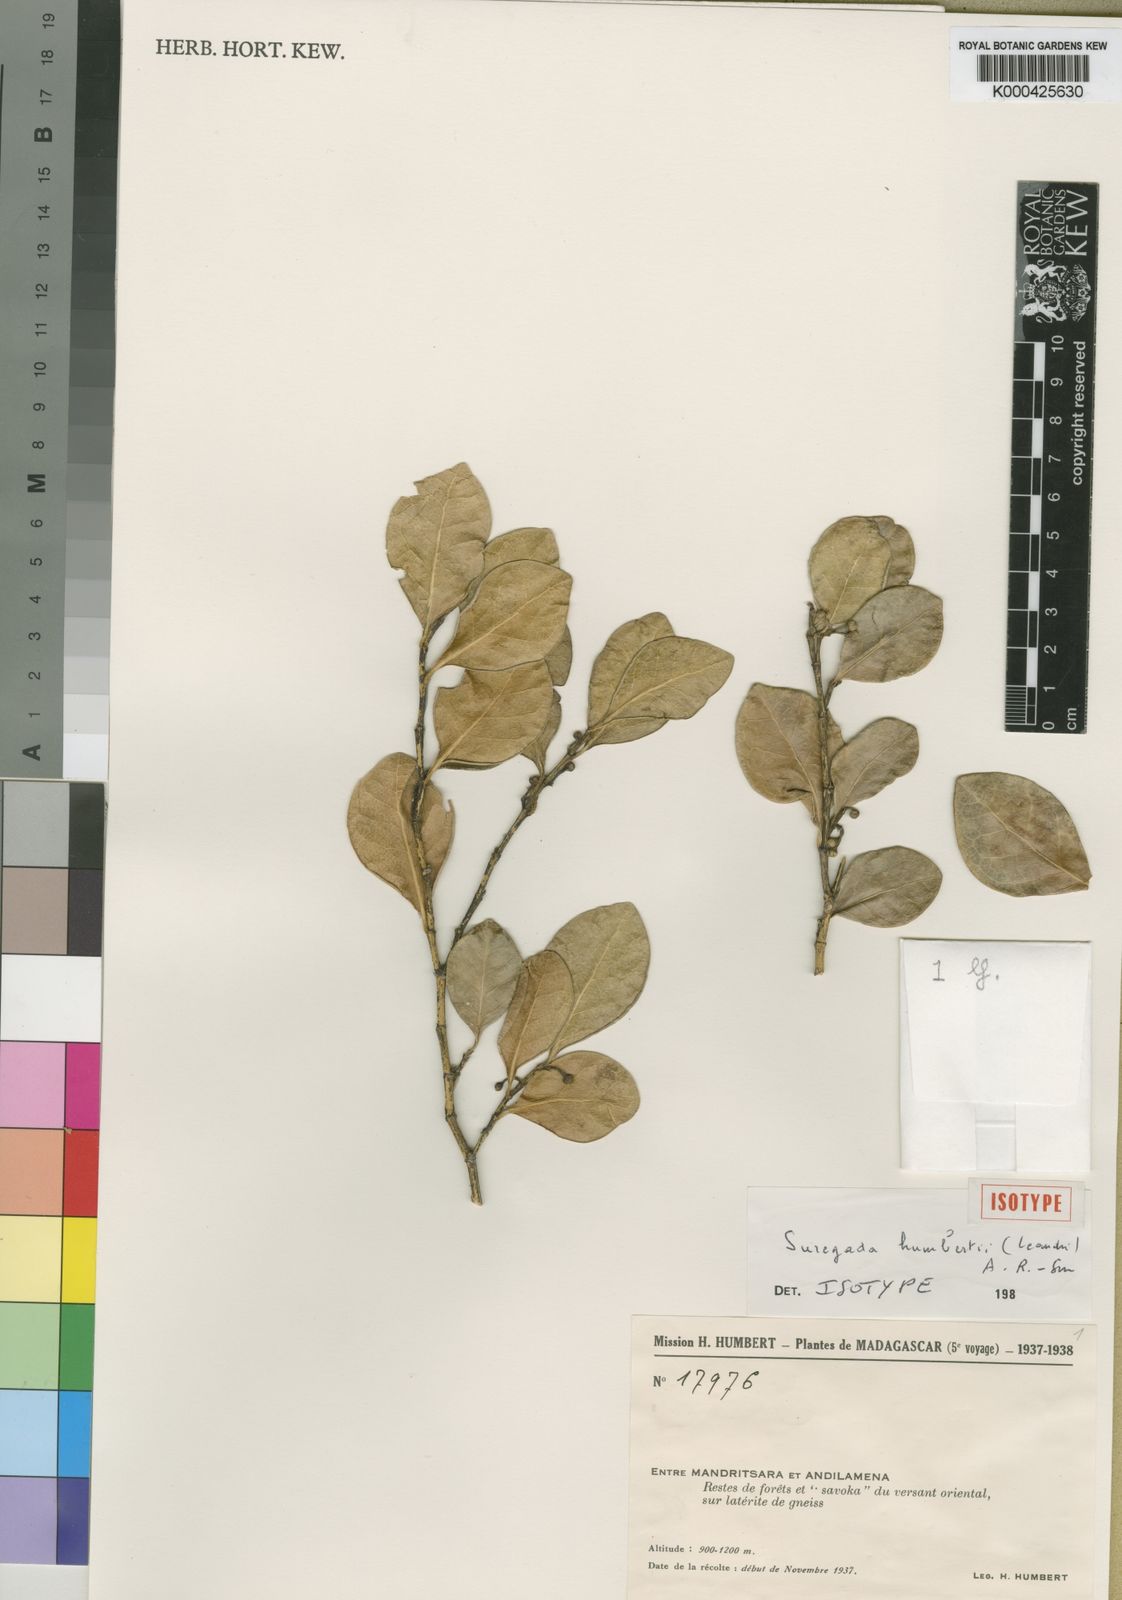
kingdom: Plantae
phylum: Tracheophyta
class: Magnoliopsida
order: Malpighiales
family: Euphorbiaceae
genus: Suregada
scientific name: Suregada humbertii
